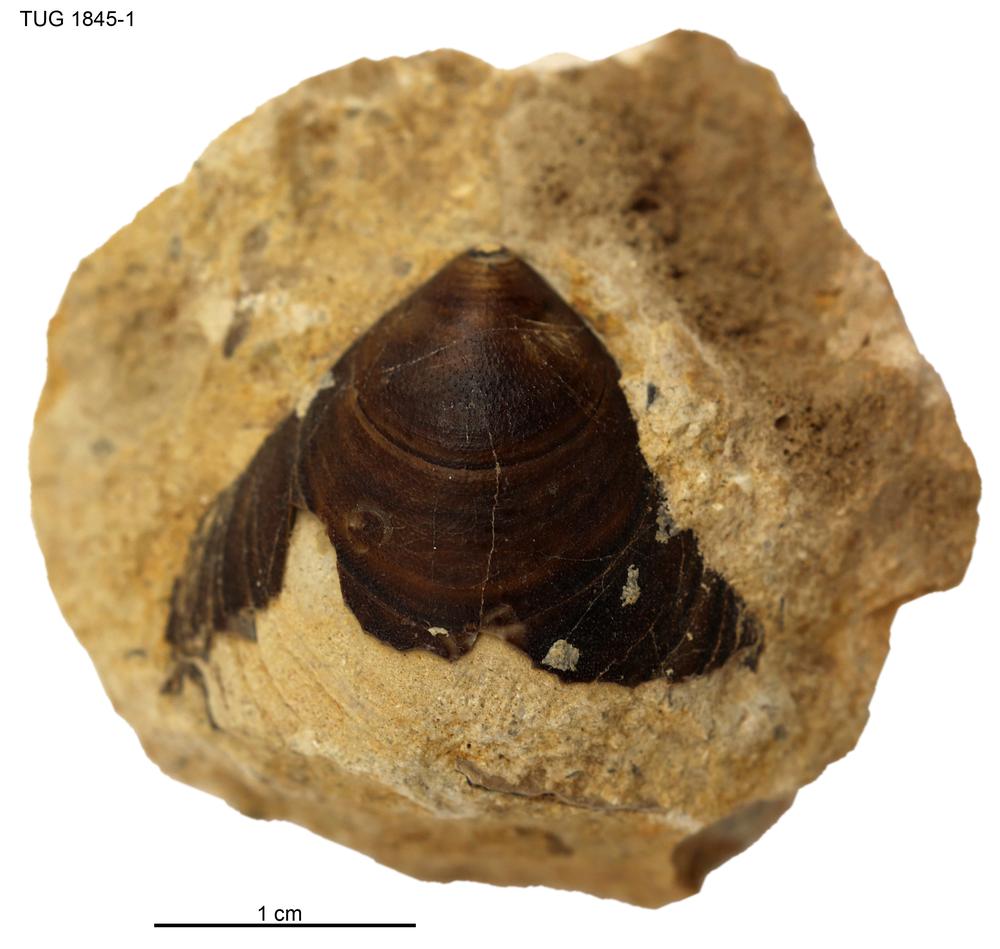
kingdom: Animalia
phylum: Brachiopoda
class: Lingulata
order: Siphonotretida
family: Siphonotretidae
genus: Siphonotreta
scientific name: Siphonotreta
